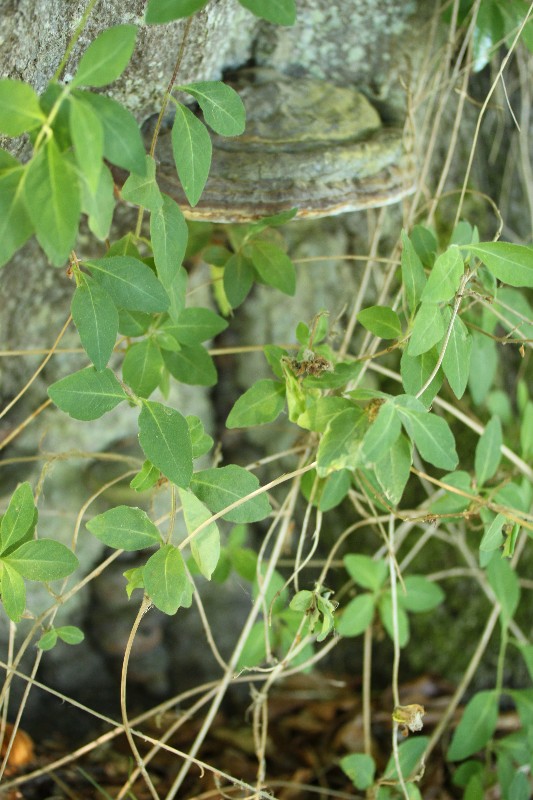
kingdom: Fungi
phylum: Basidiomycota
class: Agaricomycetes
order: Polyporales
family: Polyporaceae
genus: Ganoderma
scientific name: Ganoderma pfeifferi
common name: kobberrød lakporesvamp
